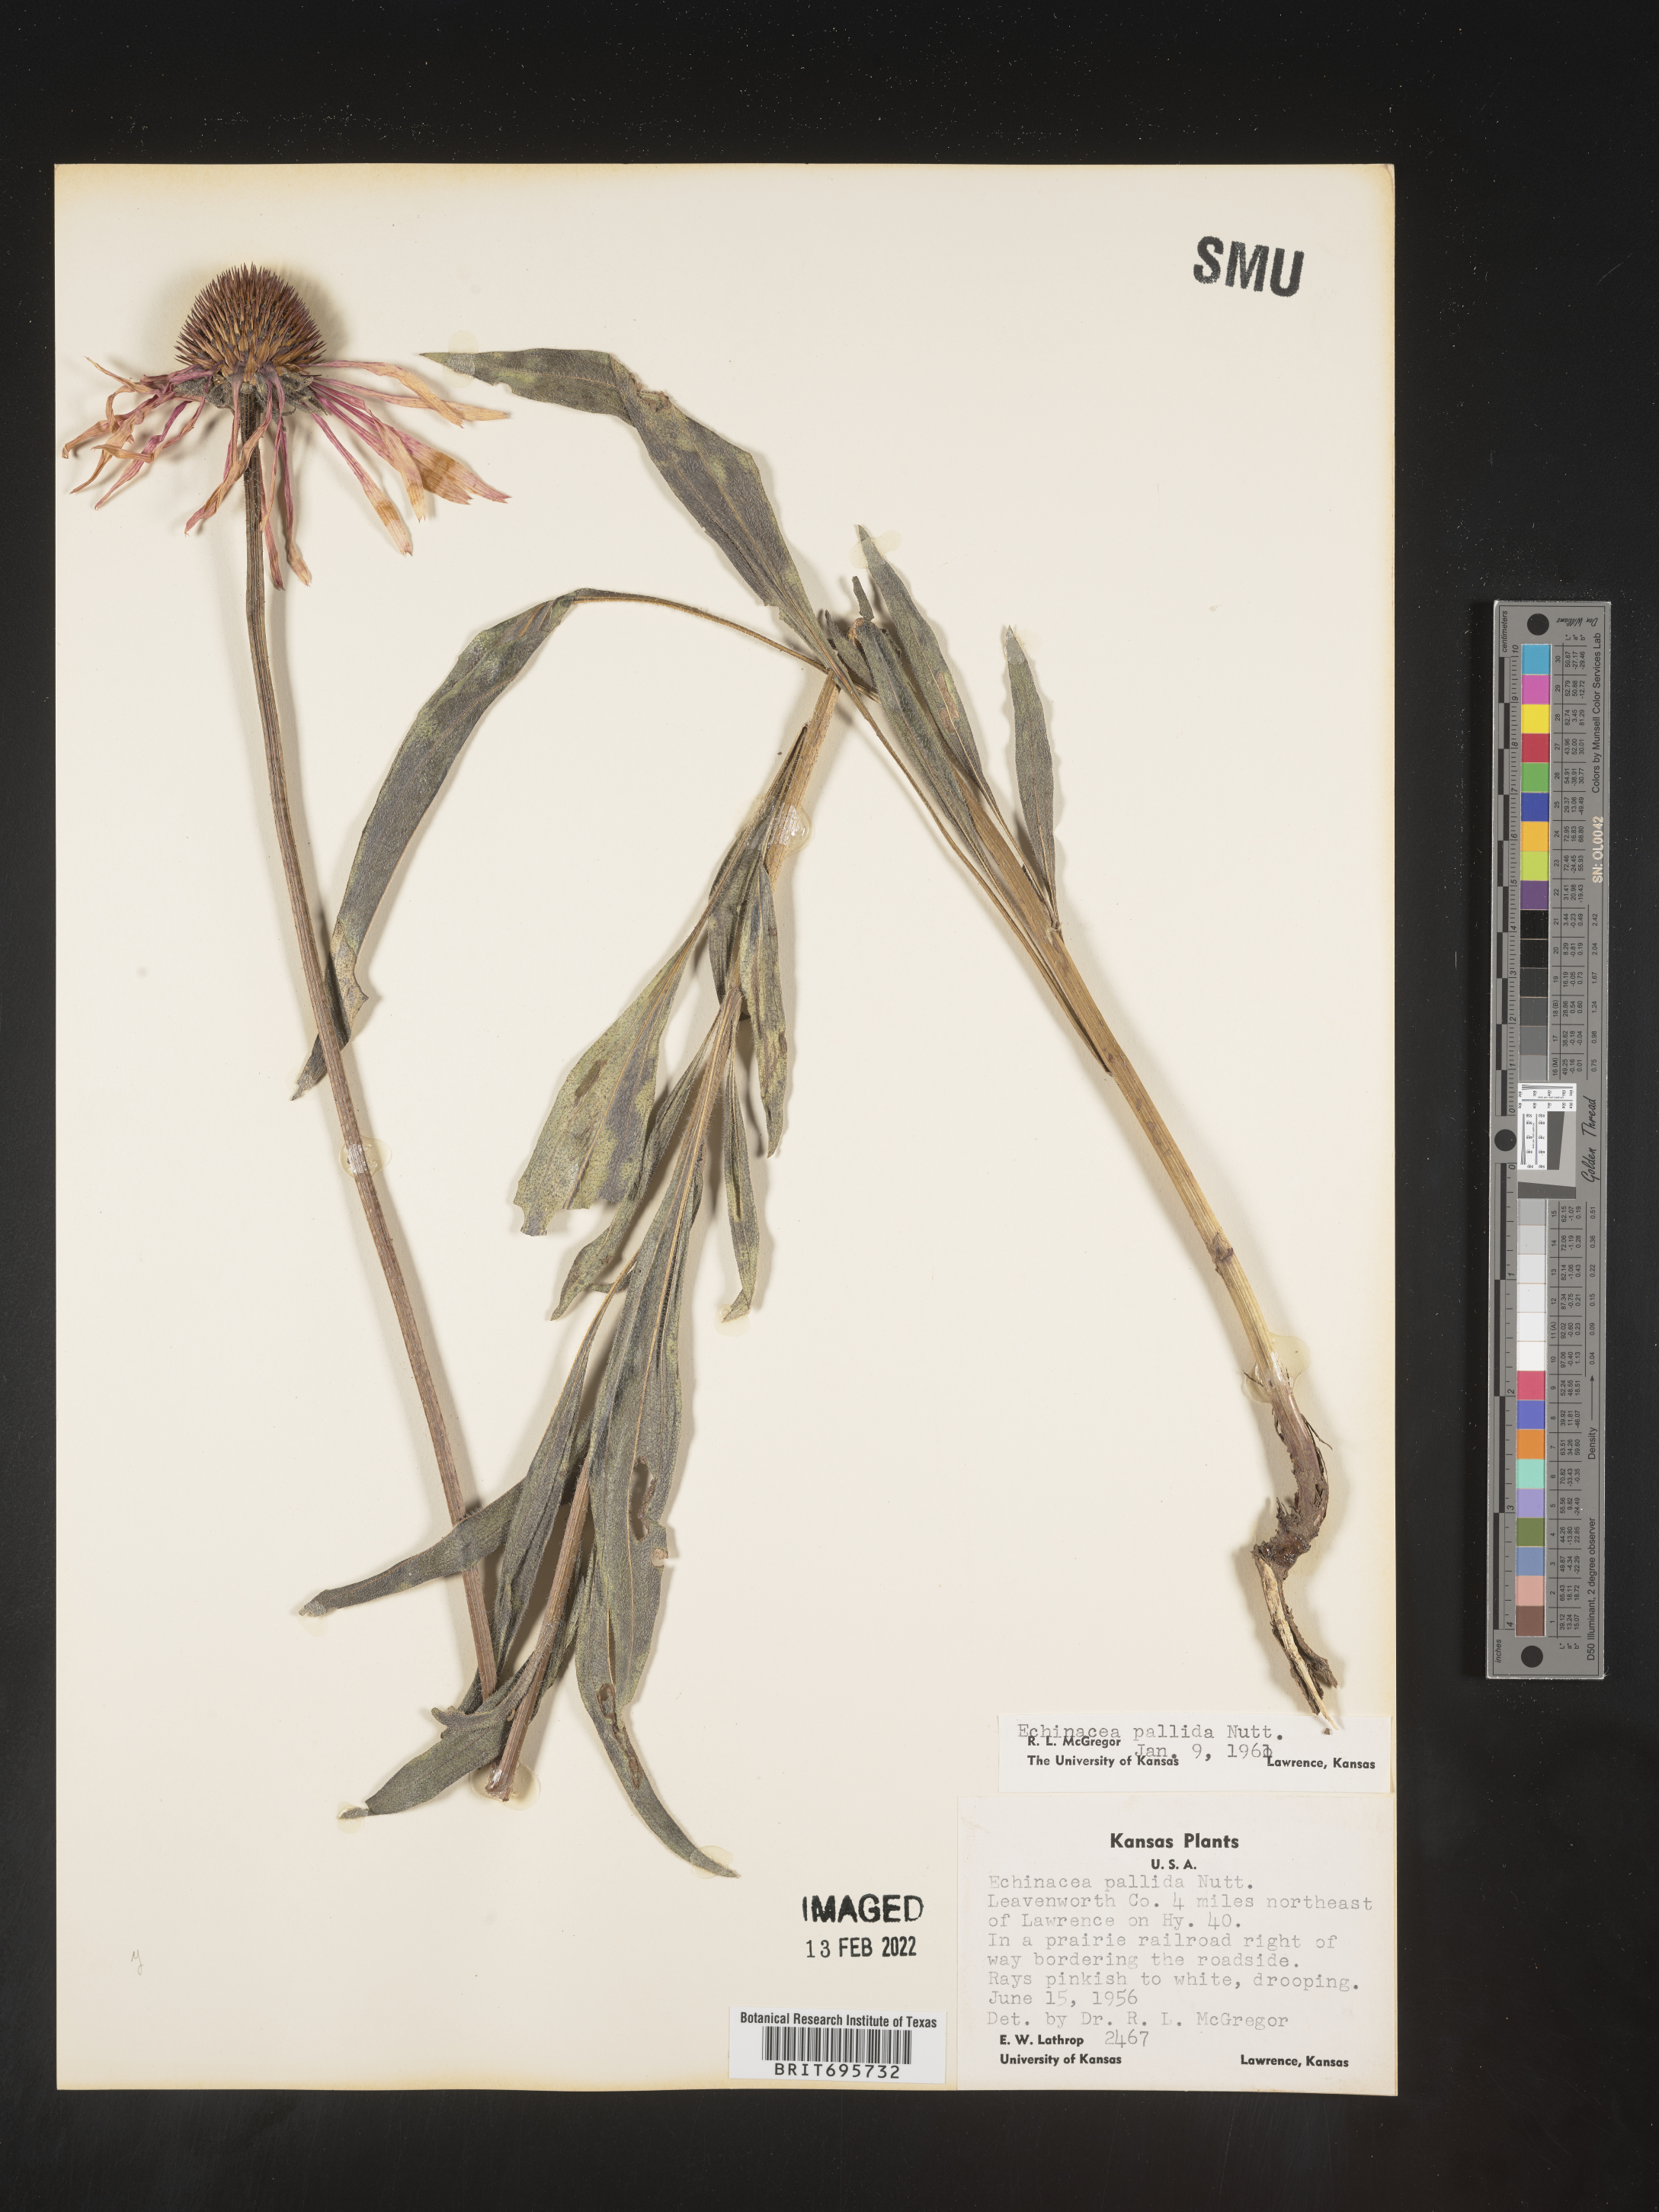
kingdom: Plantae
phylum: Tracheophyta
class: Magnoliopsida
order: Asterales
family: Asteraceae
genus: Echinacea
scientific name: Echinacea pallida
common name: Pale echinacea
